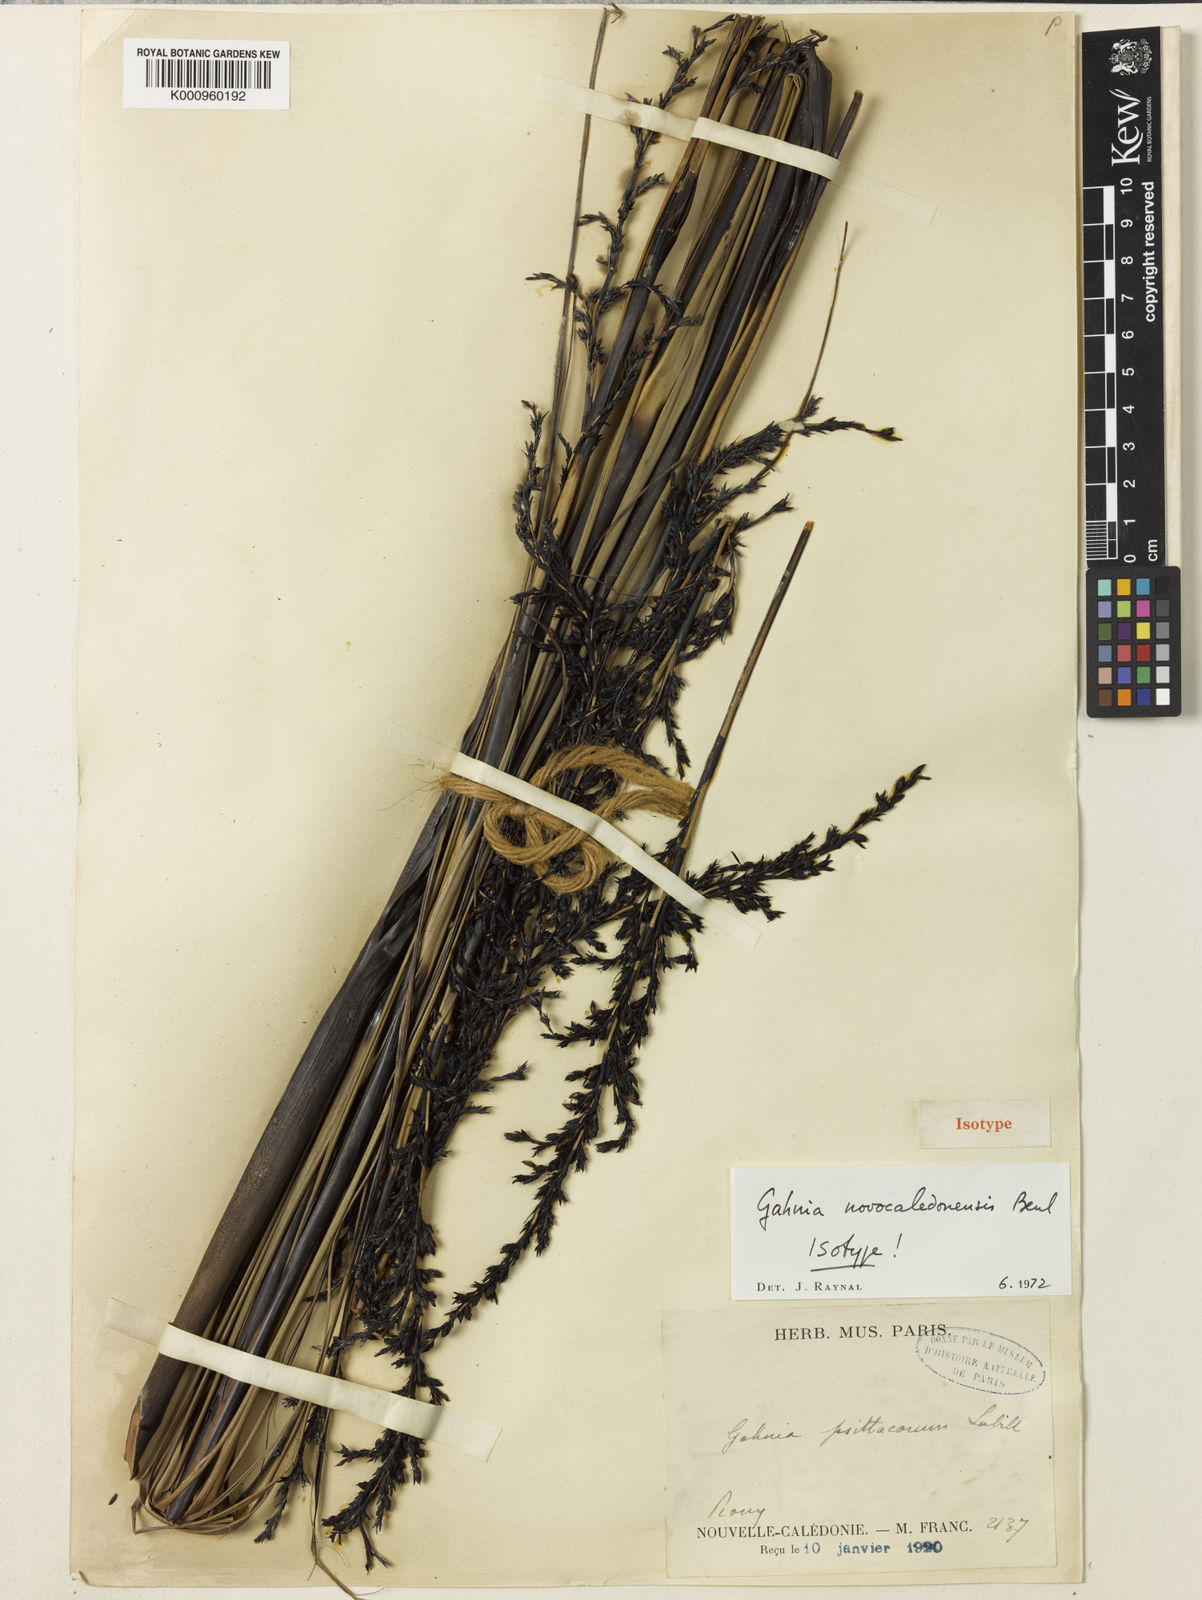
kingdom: Plantae
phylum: Tracheophyta
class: Liliopsida
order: Poales
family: Cyperaceae
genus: Gahnia
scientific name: Gahnia novocaledonensis
